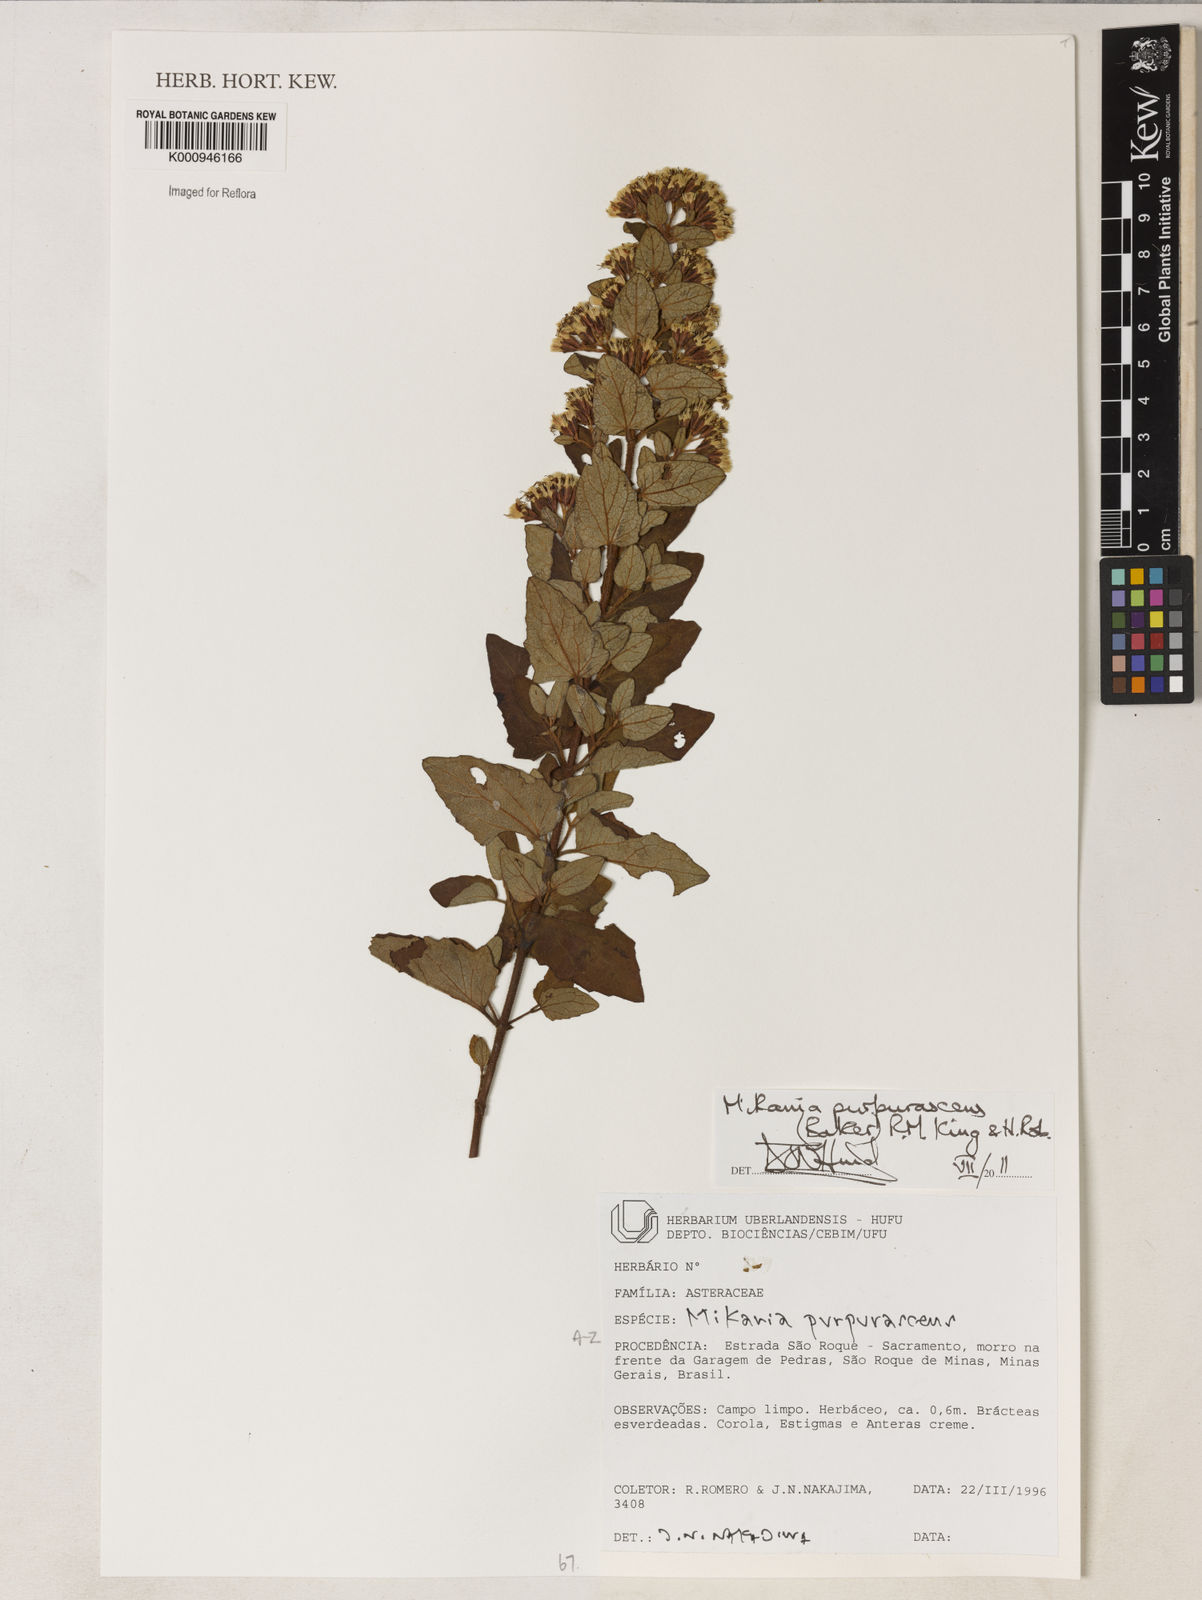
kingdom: Plantae
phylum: Tracheophyta
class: Magnoliopsida
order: Asterales
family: Asteraceae
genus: Mikania
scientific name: Mikania purpurascens
